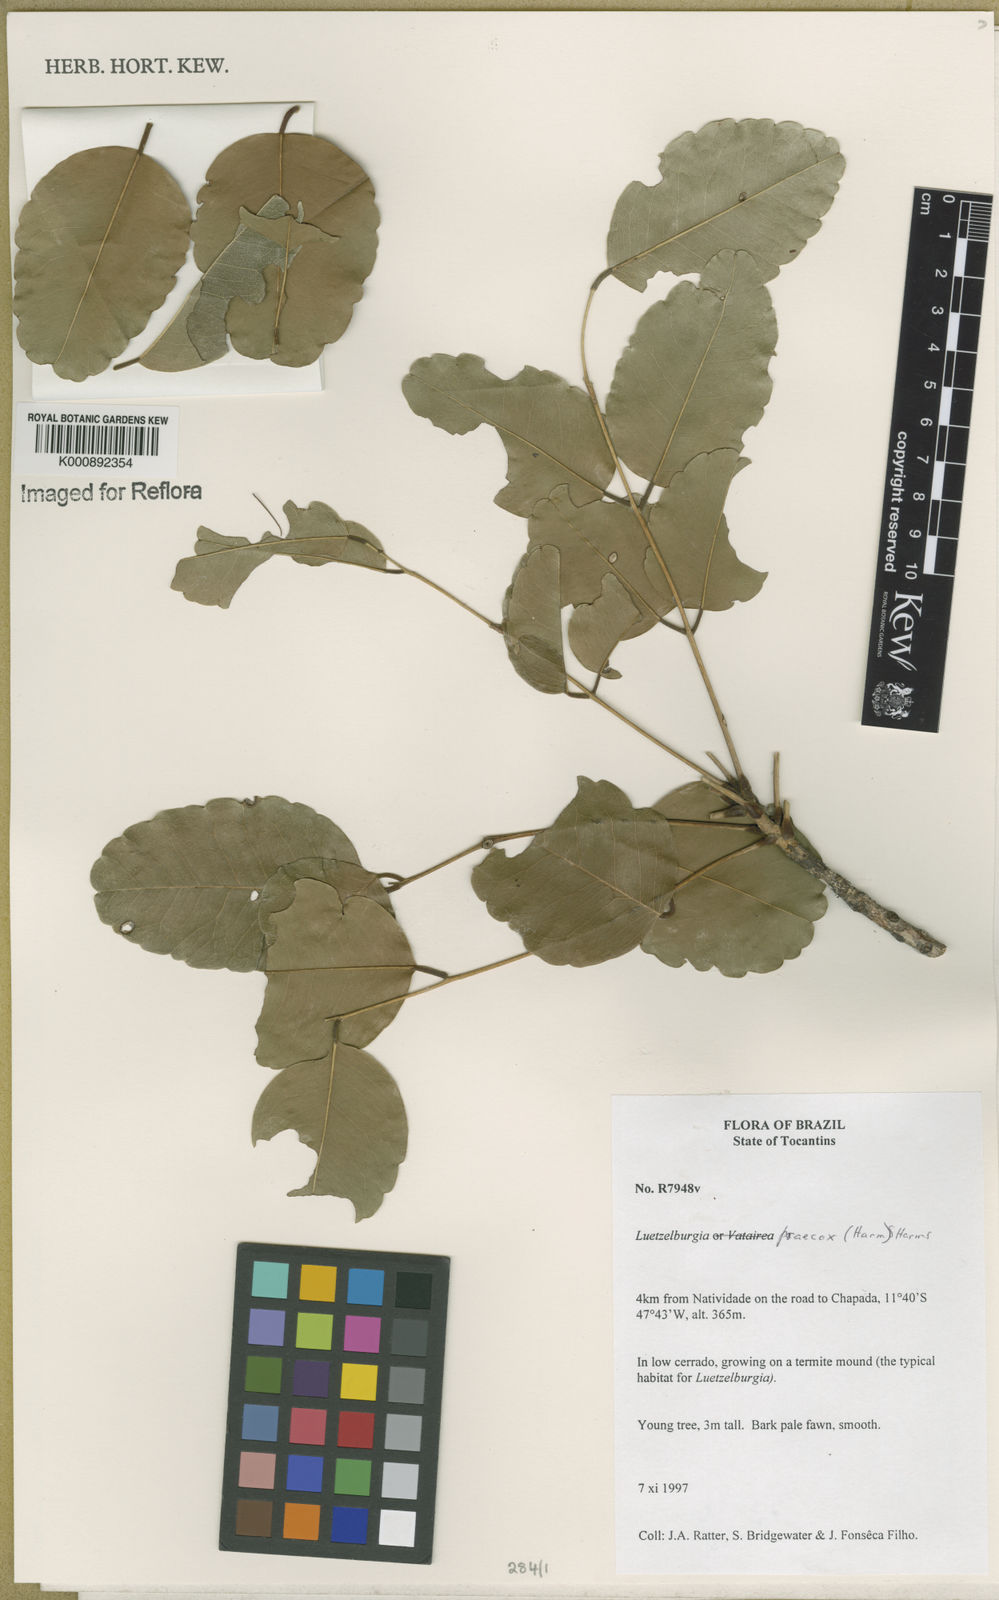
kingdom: Plantae
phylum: Tracheophyta
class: Magnoliopsida
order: Fabales
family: Fabaceae
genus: Luetzelburgia
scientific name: Luetzelburgia praecox
